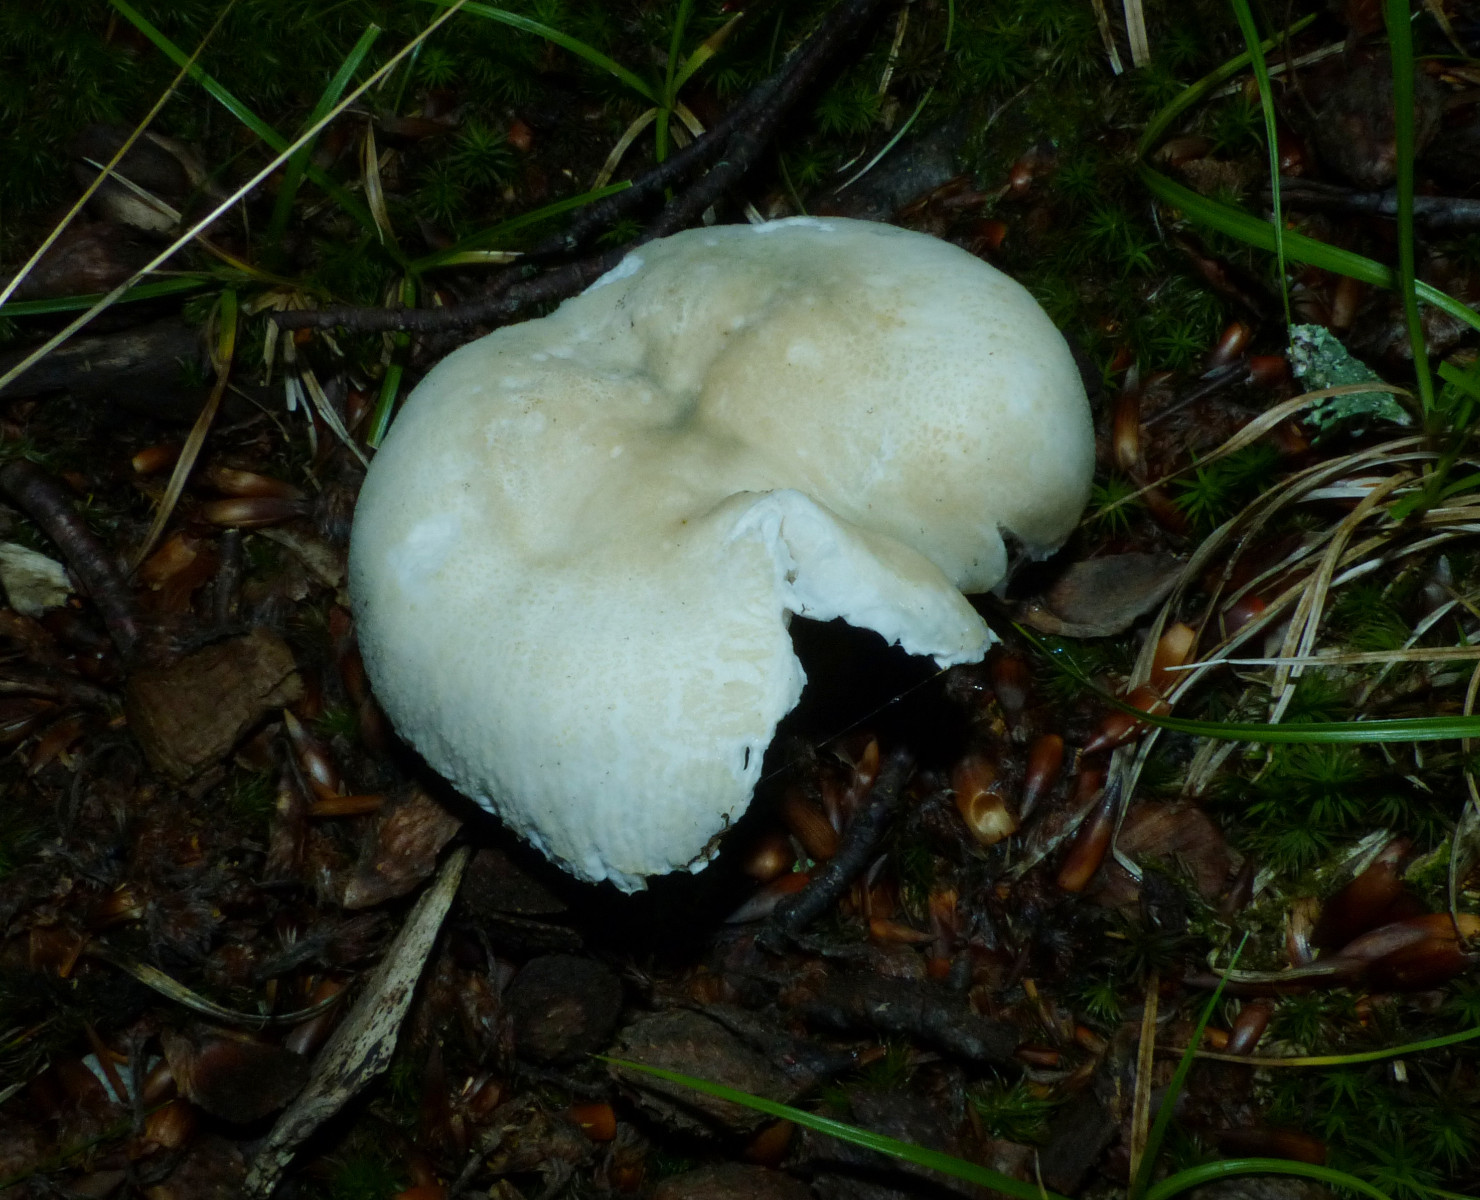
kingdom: Fungi
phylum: Basidiomycota
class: Agaricomycetes
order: Russulales
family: Russulaceae
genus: Russula
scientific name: Russula virescens
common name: spanskgrøn skørhat
